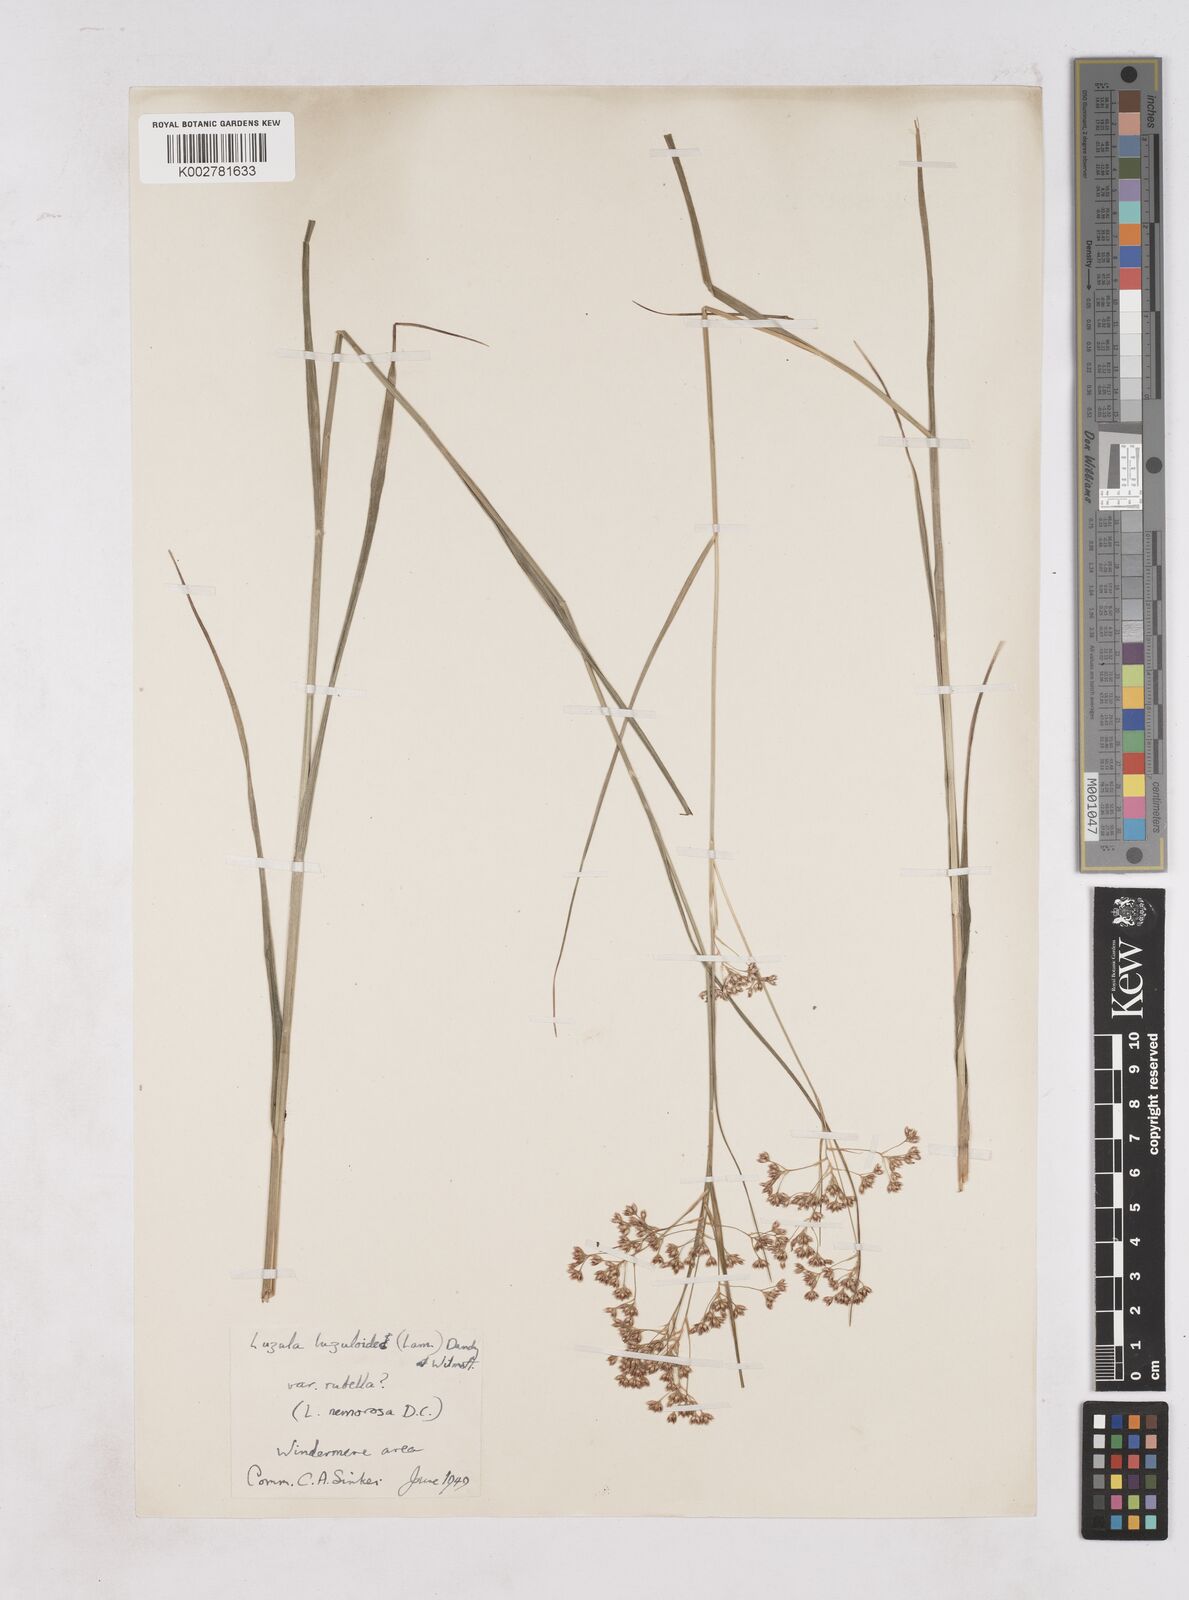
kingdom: Plantae
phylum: Tracheophyta
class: Liliopsida
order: Poales
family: Juncaceae
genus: Luzula
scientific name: Luzula luzuloides
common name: White wood-rush
